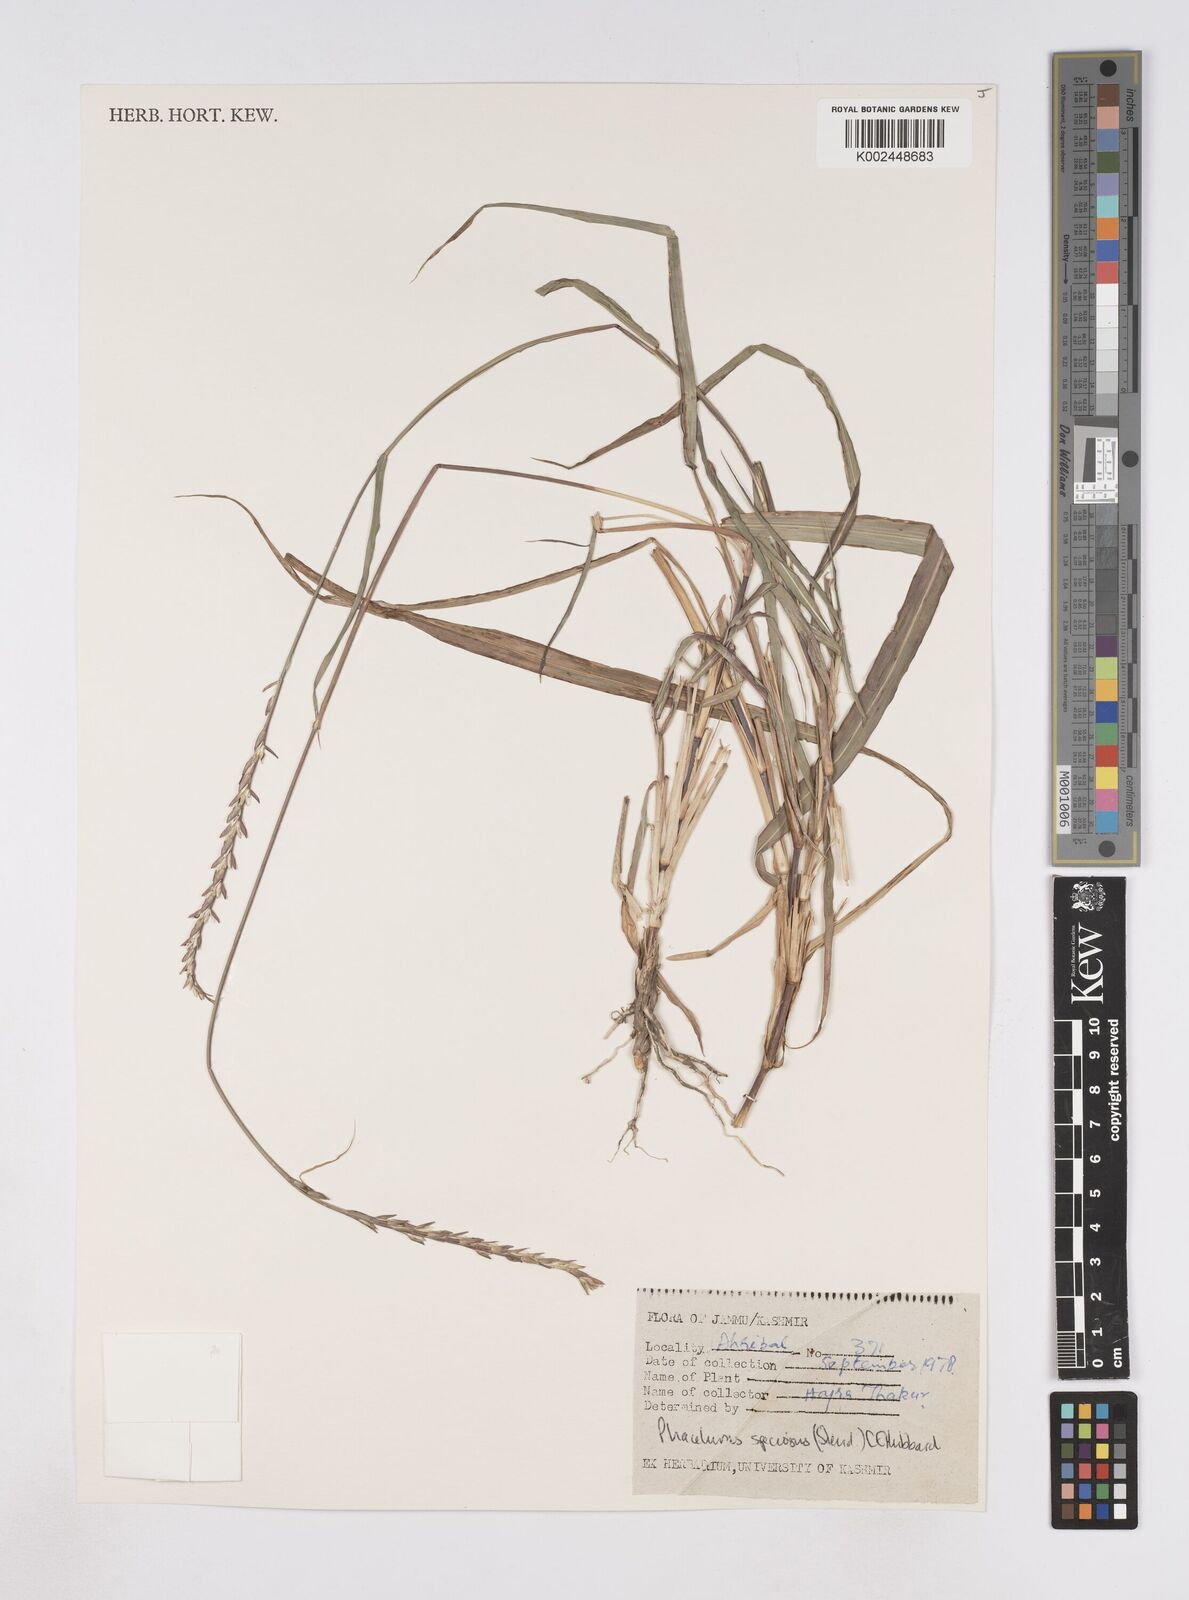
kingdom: Plantae
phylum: Tracheophyta
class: Liliopsida
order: Poales
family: Poaceae
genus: Phacelurus
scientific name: Phacelurus speciosus
